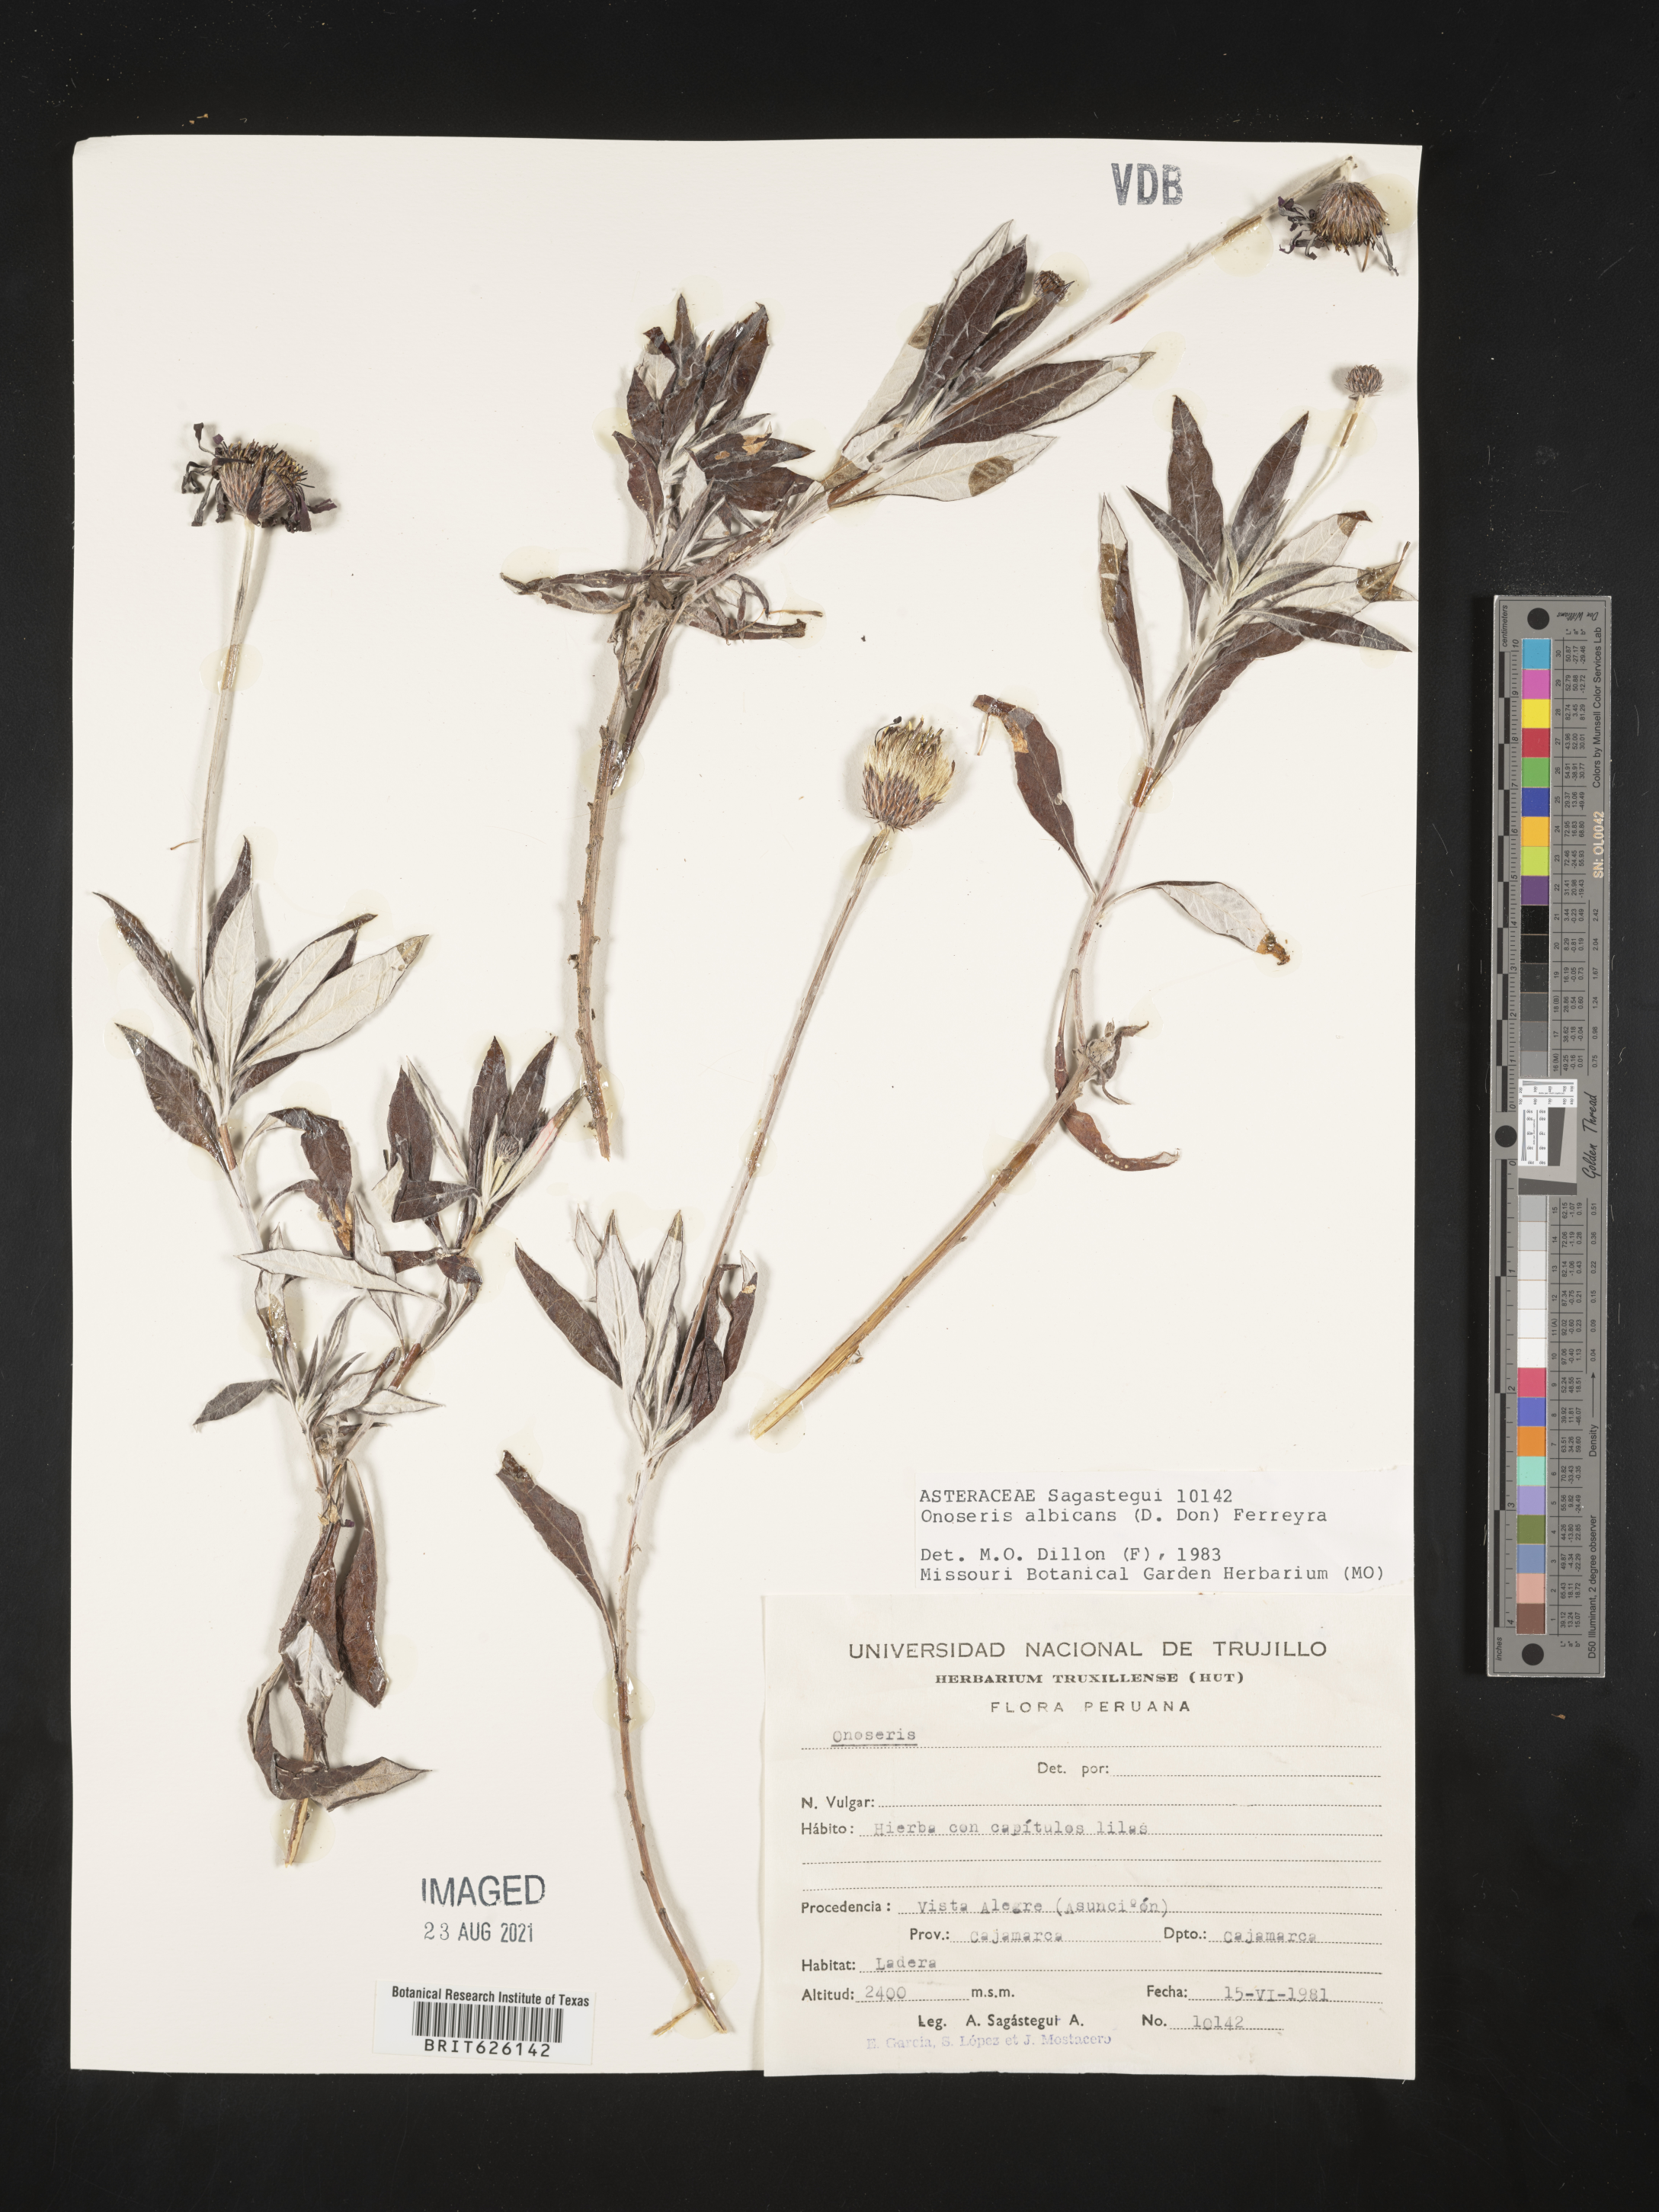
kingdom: Plantae
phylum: Tracheophyta
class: Magnoliopsida
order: Asterales
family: Asteraceae
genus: Onoseris
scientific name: Onoseris albicans
